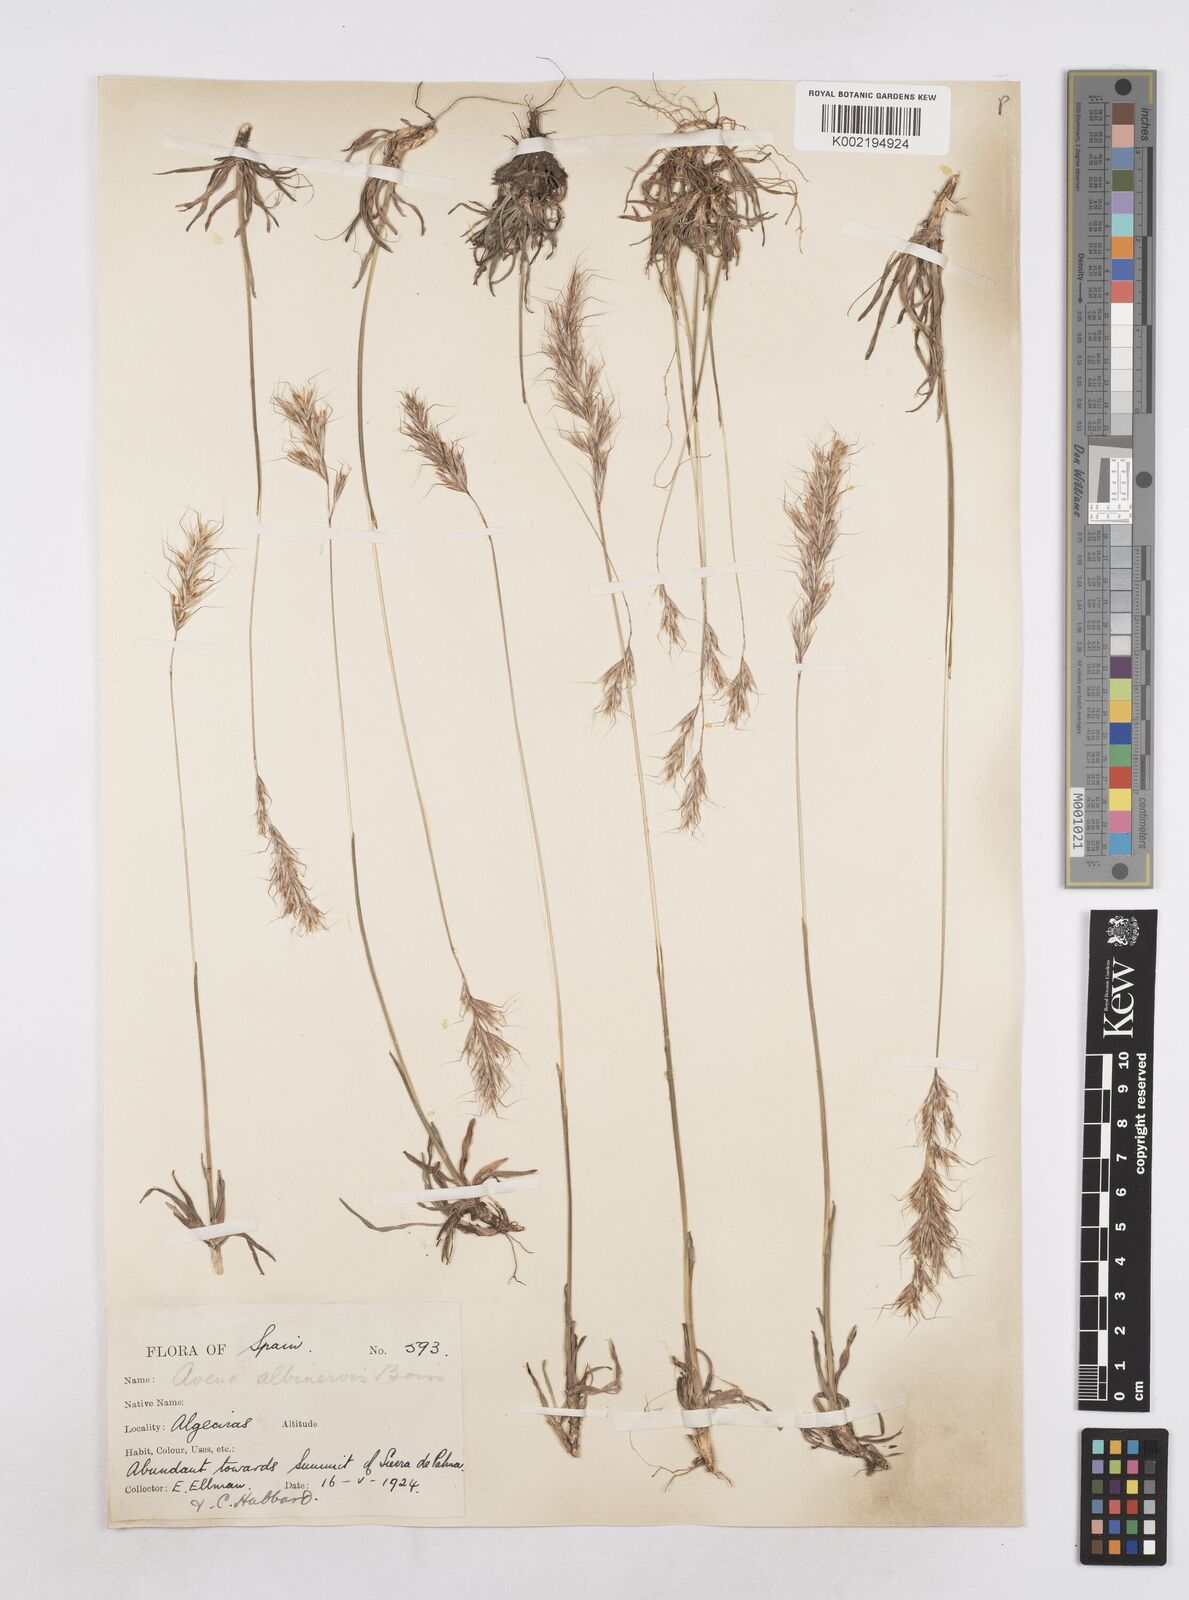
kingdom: Plantae
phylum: Tracheophyta
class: Liliopsida
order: Poales
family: Poaceae
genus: Helictochloa
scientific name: Helictochloa albinervis
